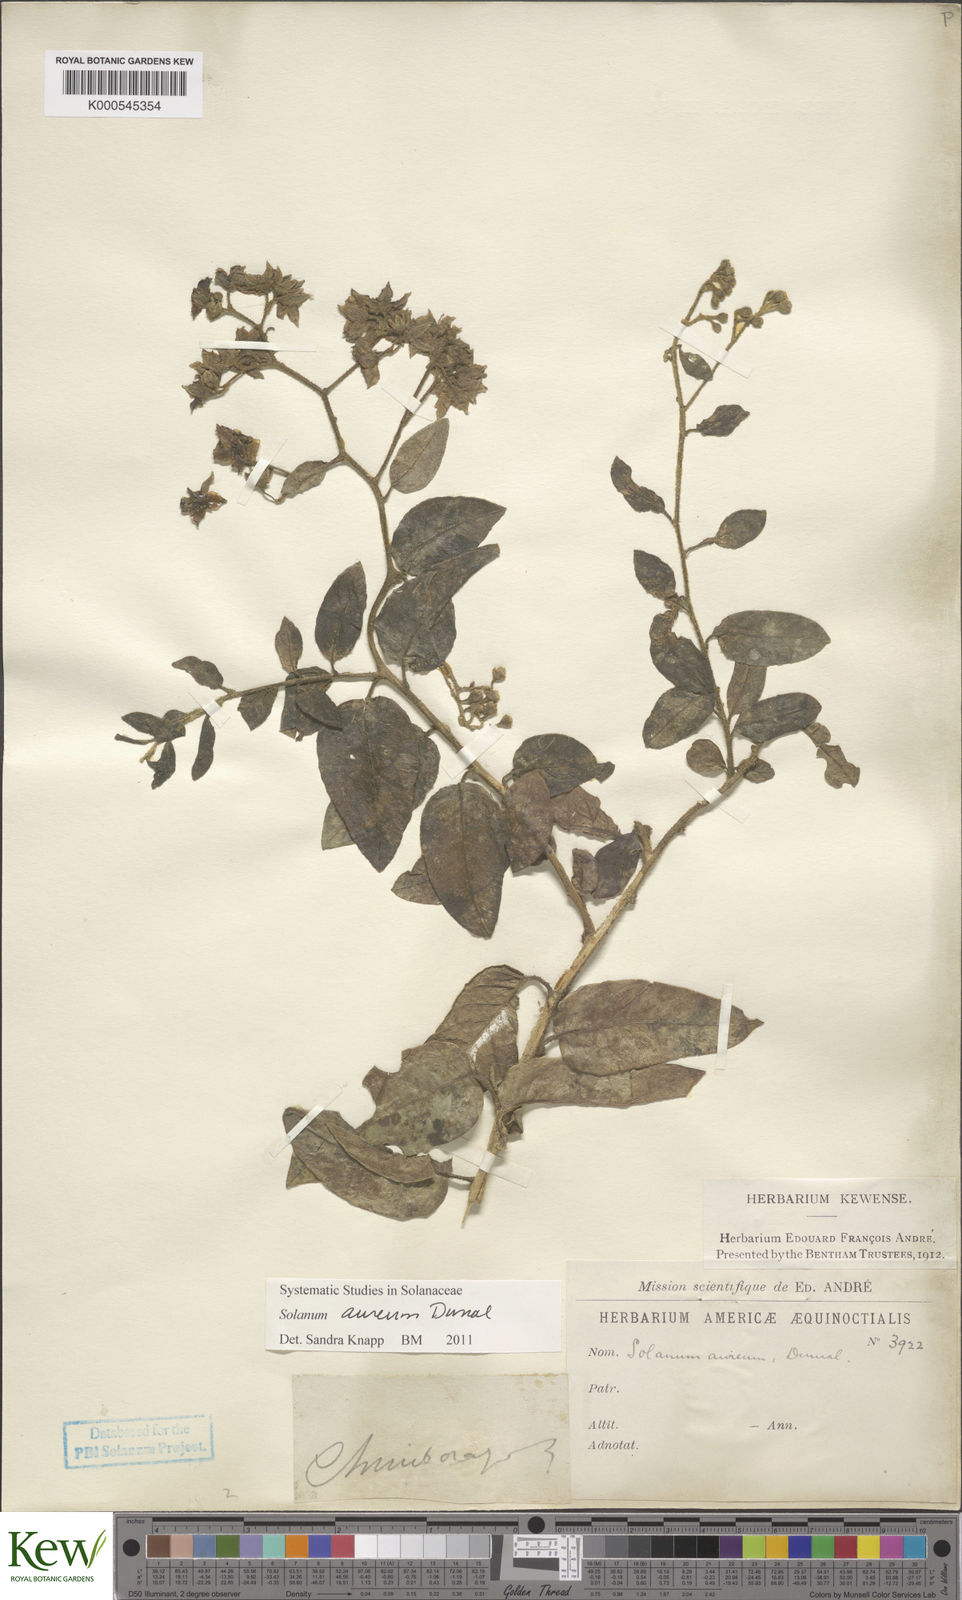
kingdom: Plantae
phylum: Tracheophyta
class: Magnoliopsida
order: Solanales
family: Solanaceae
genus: Solanum
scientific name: Solanum aureum
